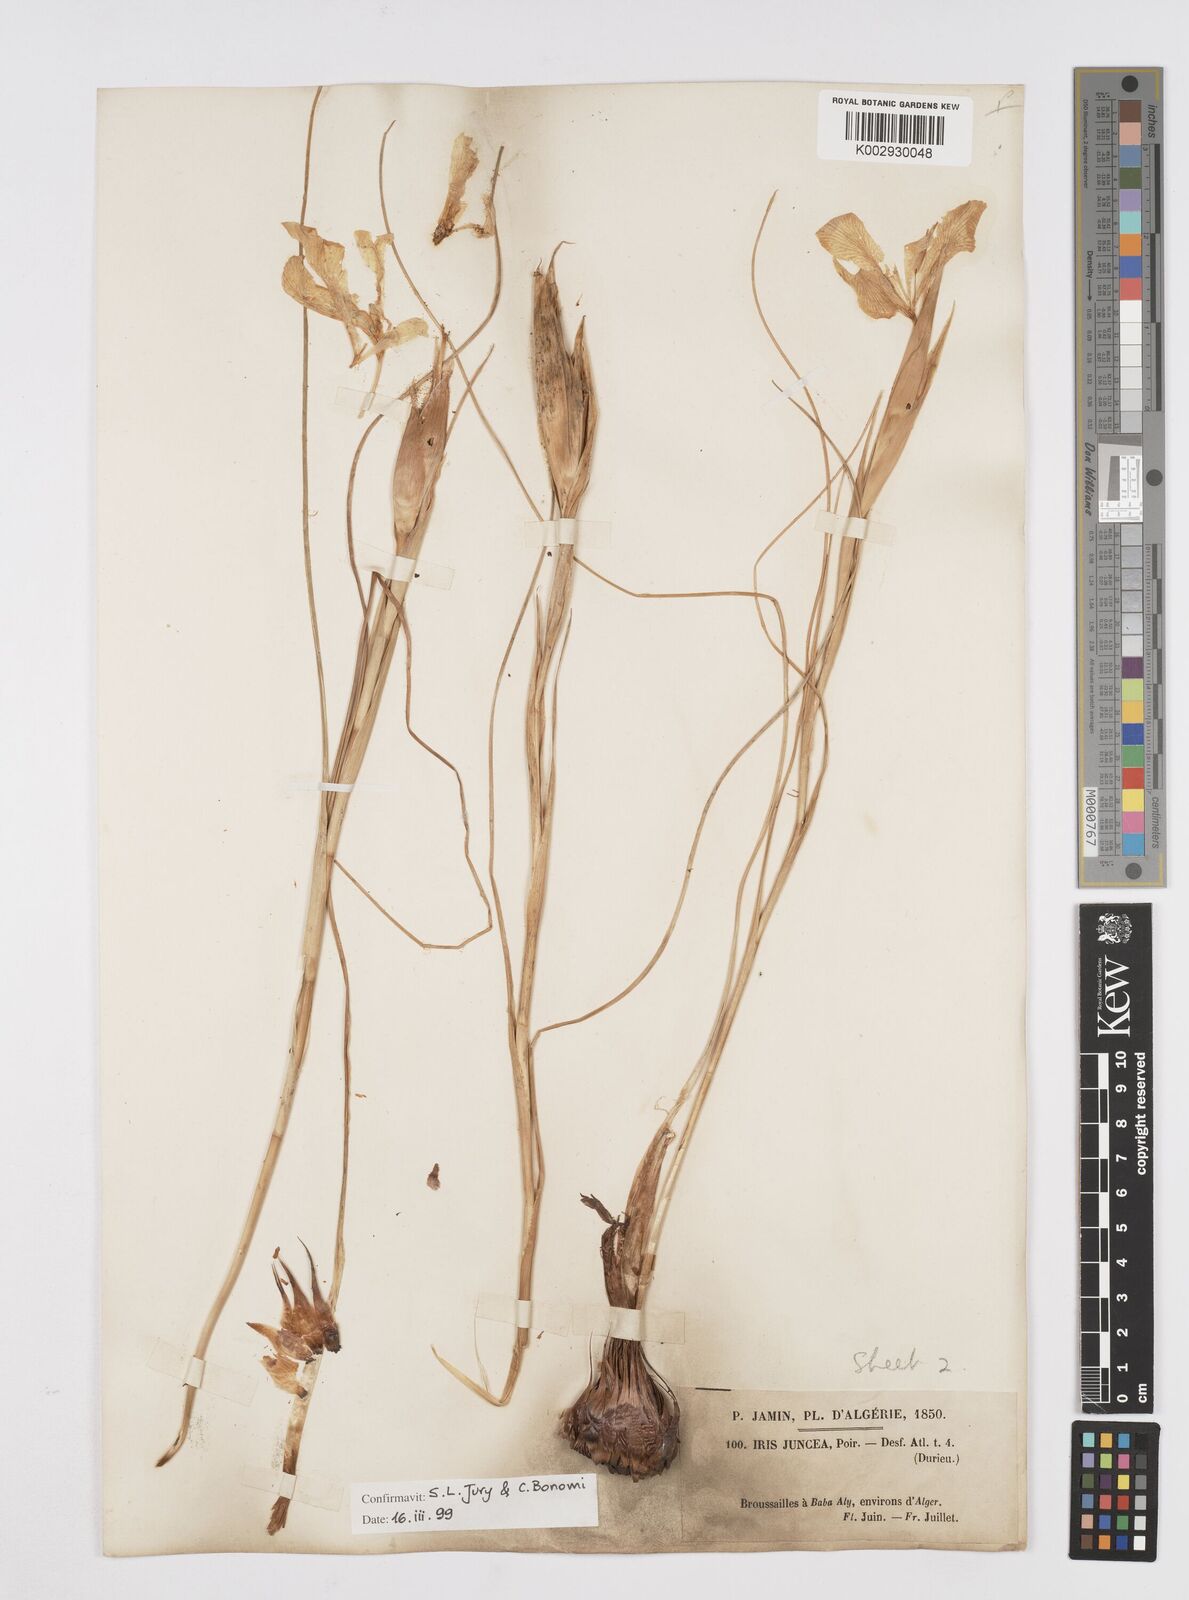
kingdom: Plantae
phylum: Tracheophyta
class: Liliopsida
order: Asparagales
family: Iridaceae
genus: Iris
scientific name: Iris juncea
